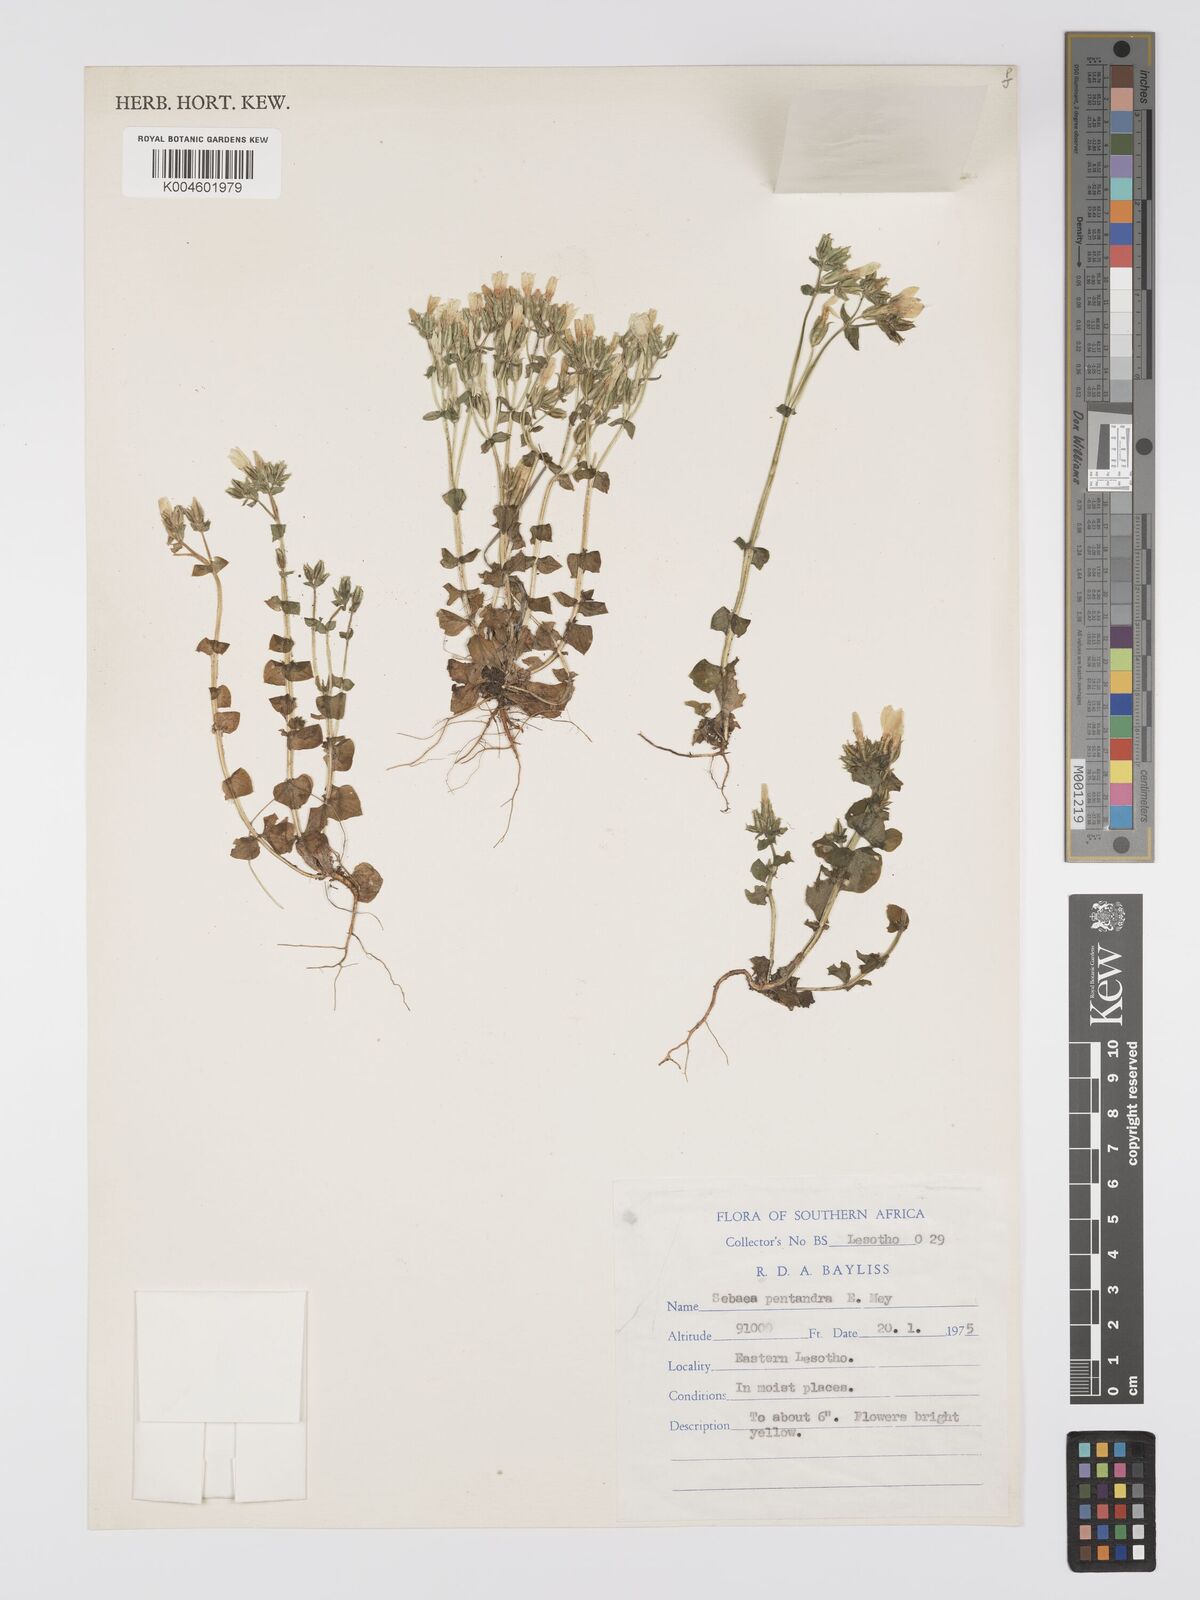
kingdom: Plantae
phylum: Tracheophyta
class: Magnoliopsida
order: Gentianales
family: Gentianaceae
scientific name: Gentianaceae
